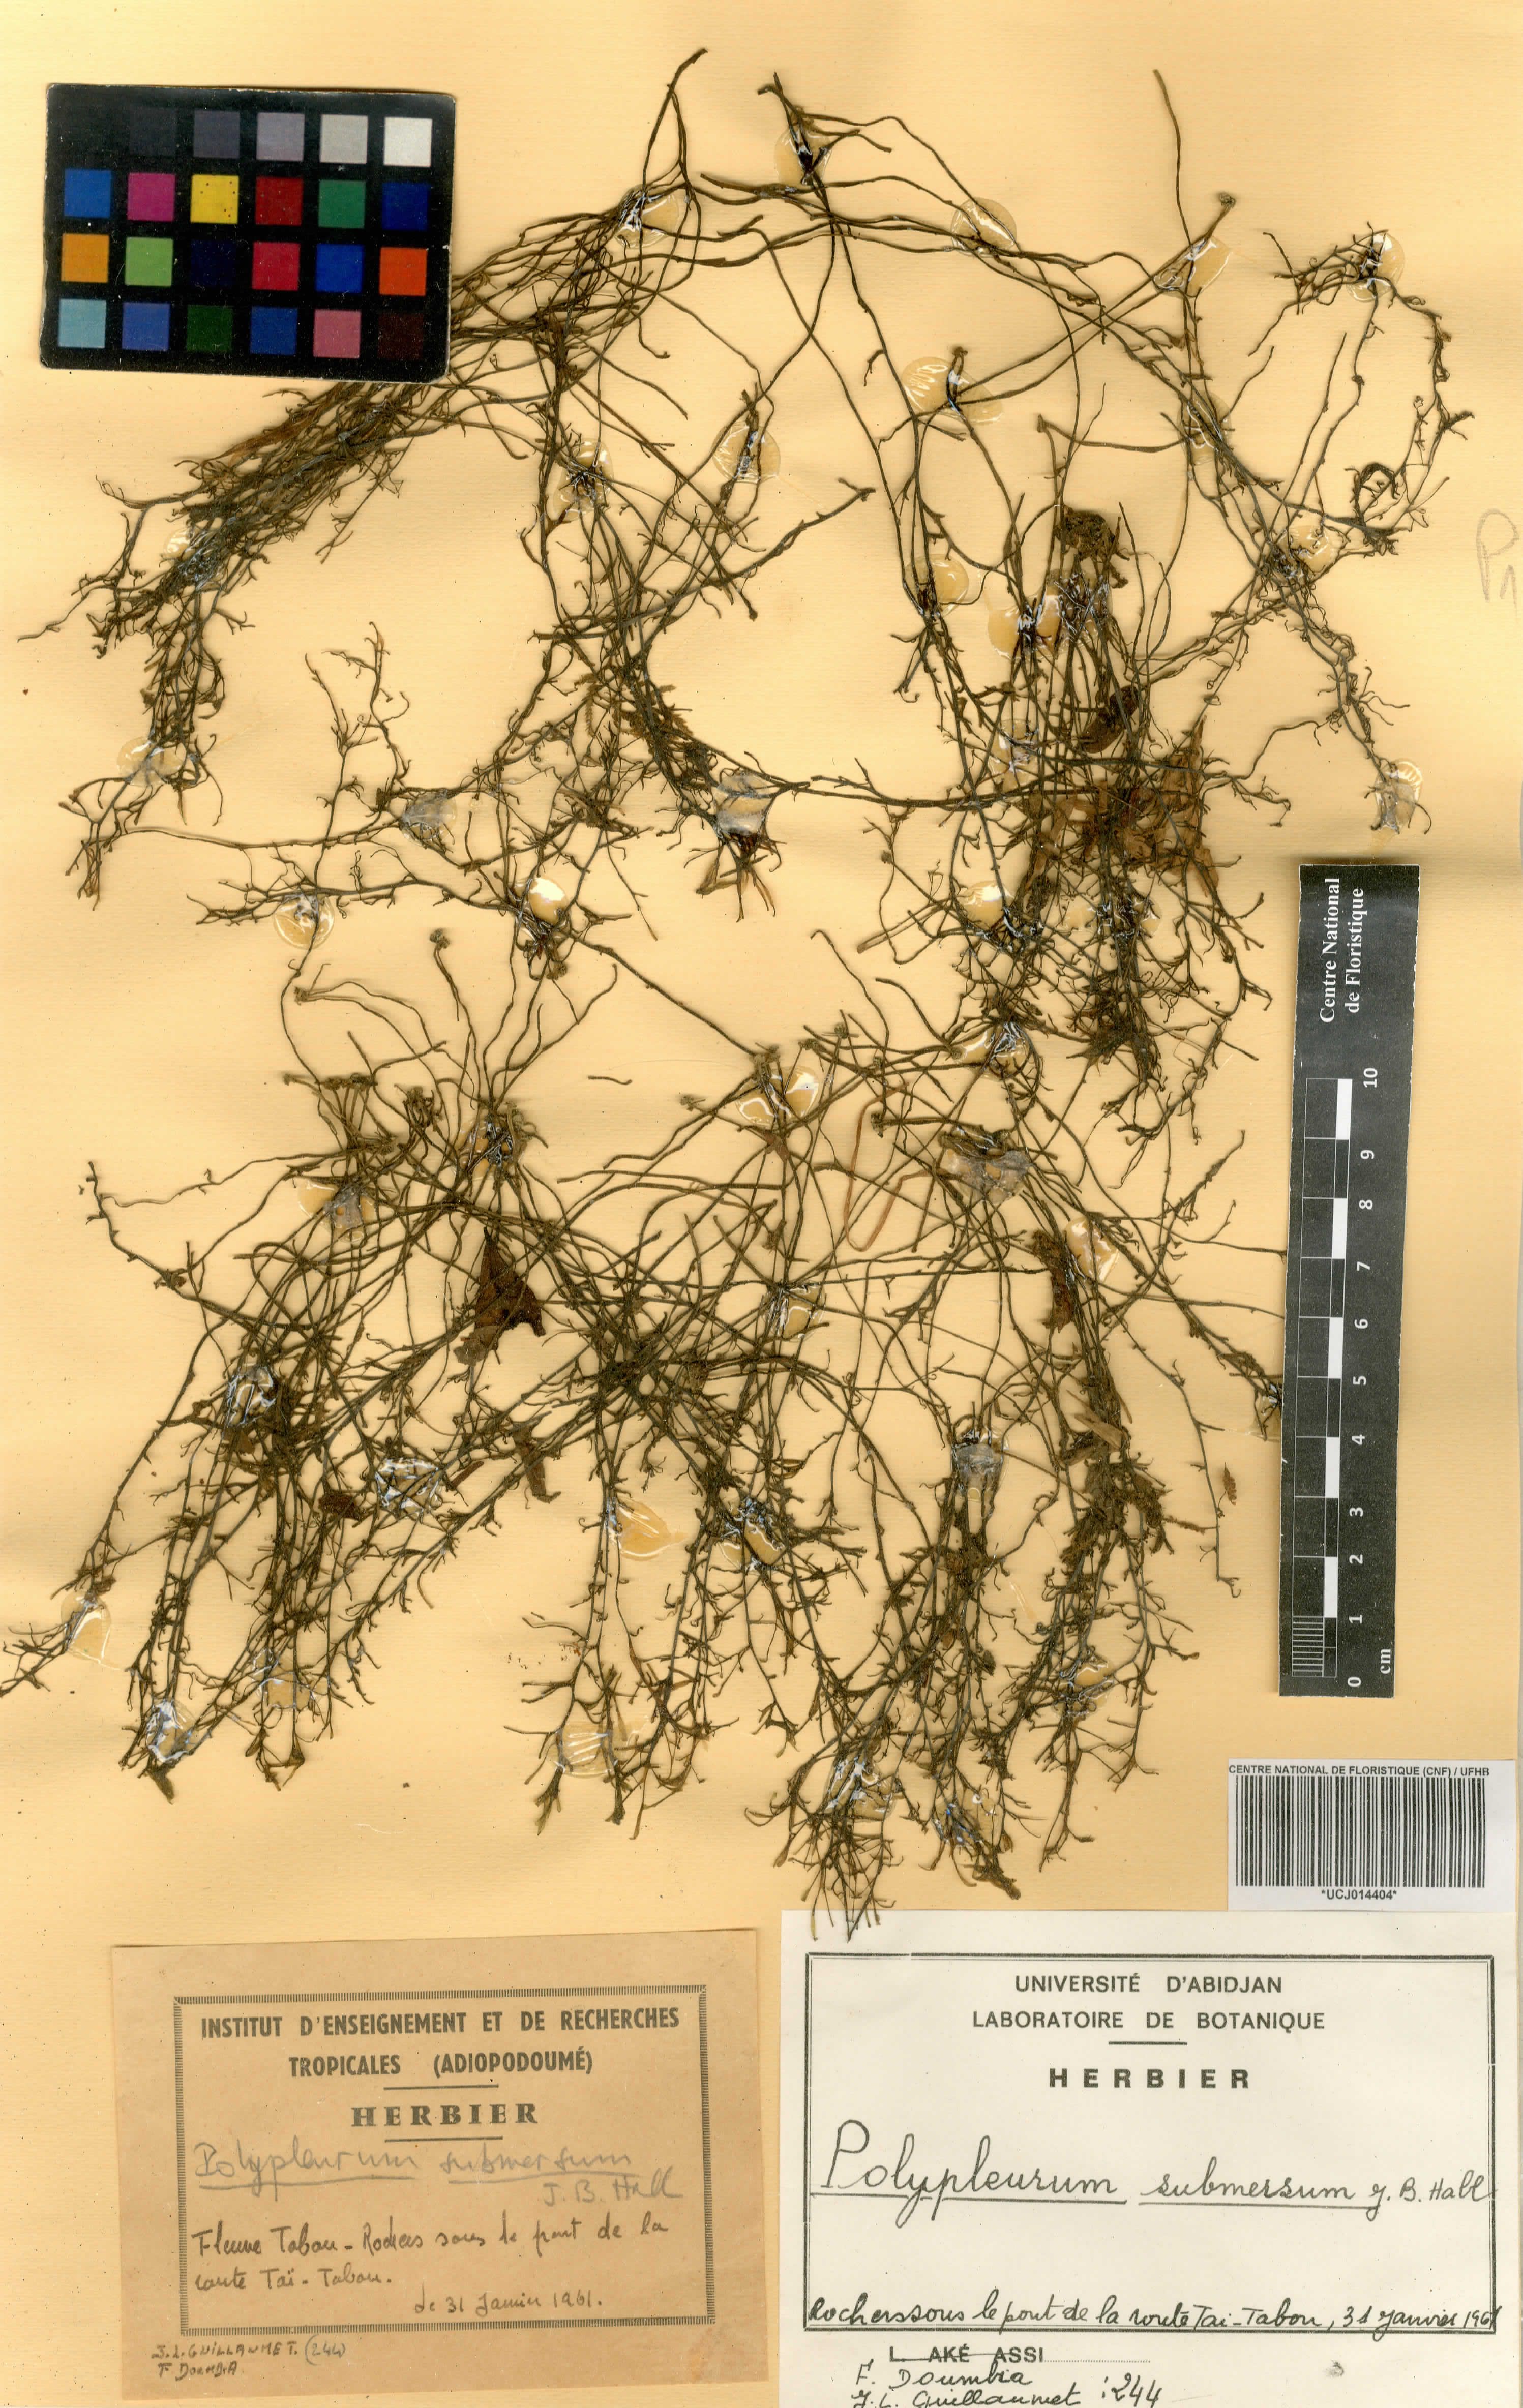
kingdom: Plantae
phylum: Tracheophyta
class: Magnoliopsida
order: Malpighiales
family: Podostemaceae
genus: Saxicolella
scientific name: Saxicolella submersa
